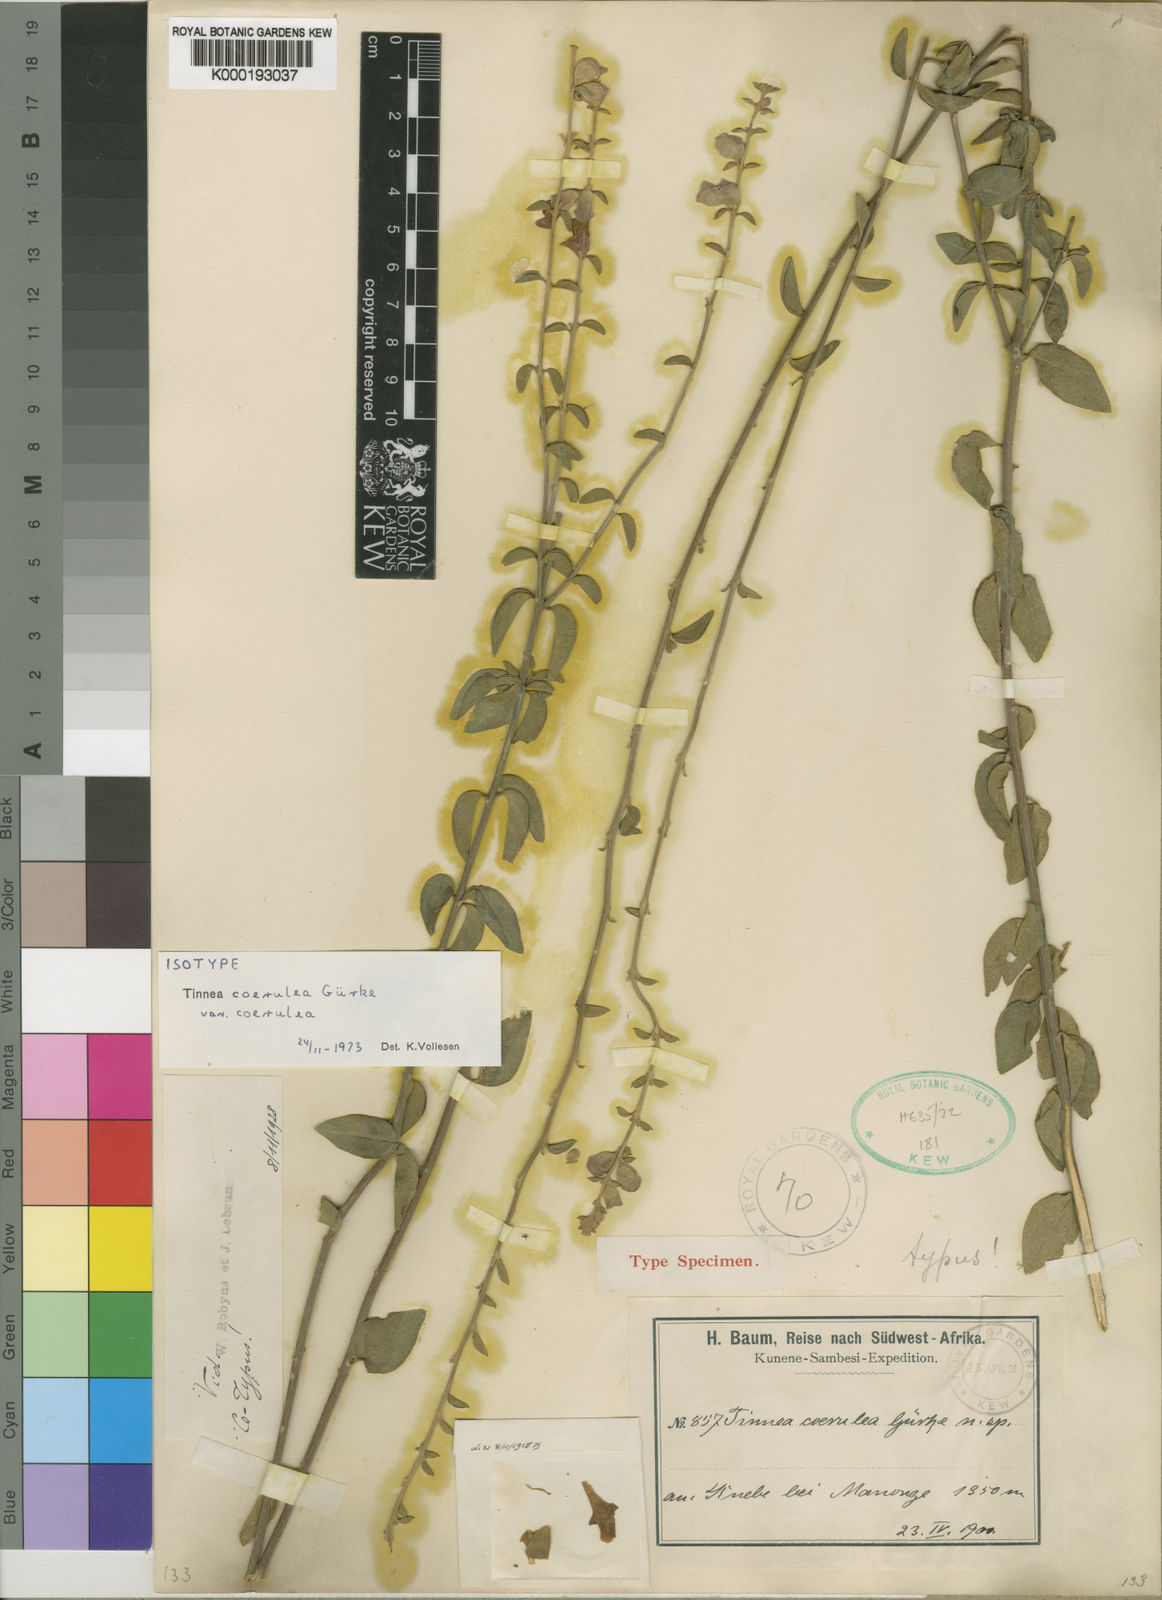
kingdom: Plantae
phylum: Tracheophyta
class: Magnoliopsida
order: Lamiales
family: Lamiaceae
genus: Tinnea
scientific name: Tinnea
